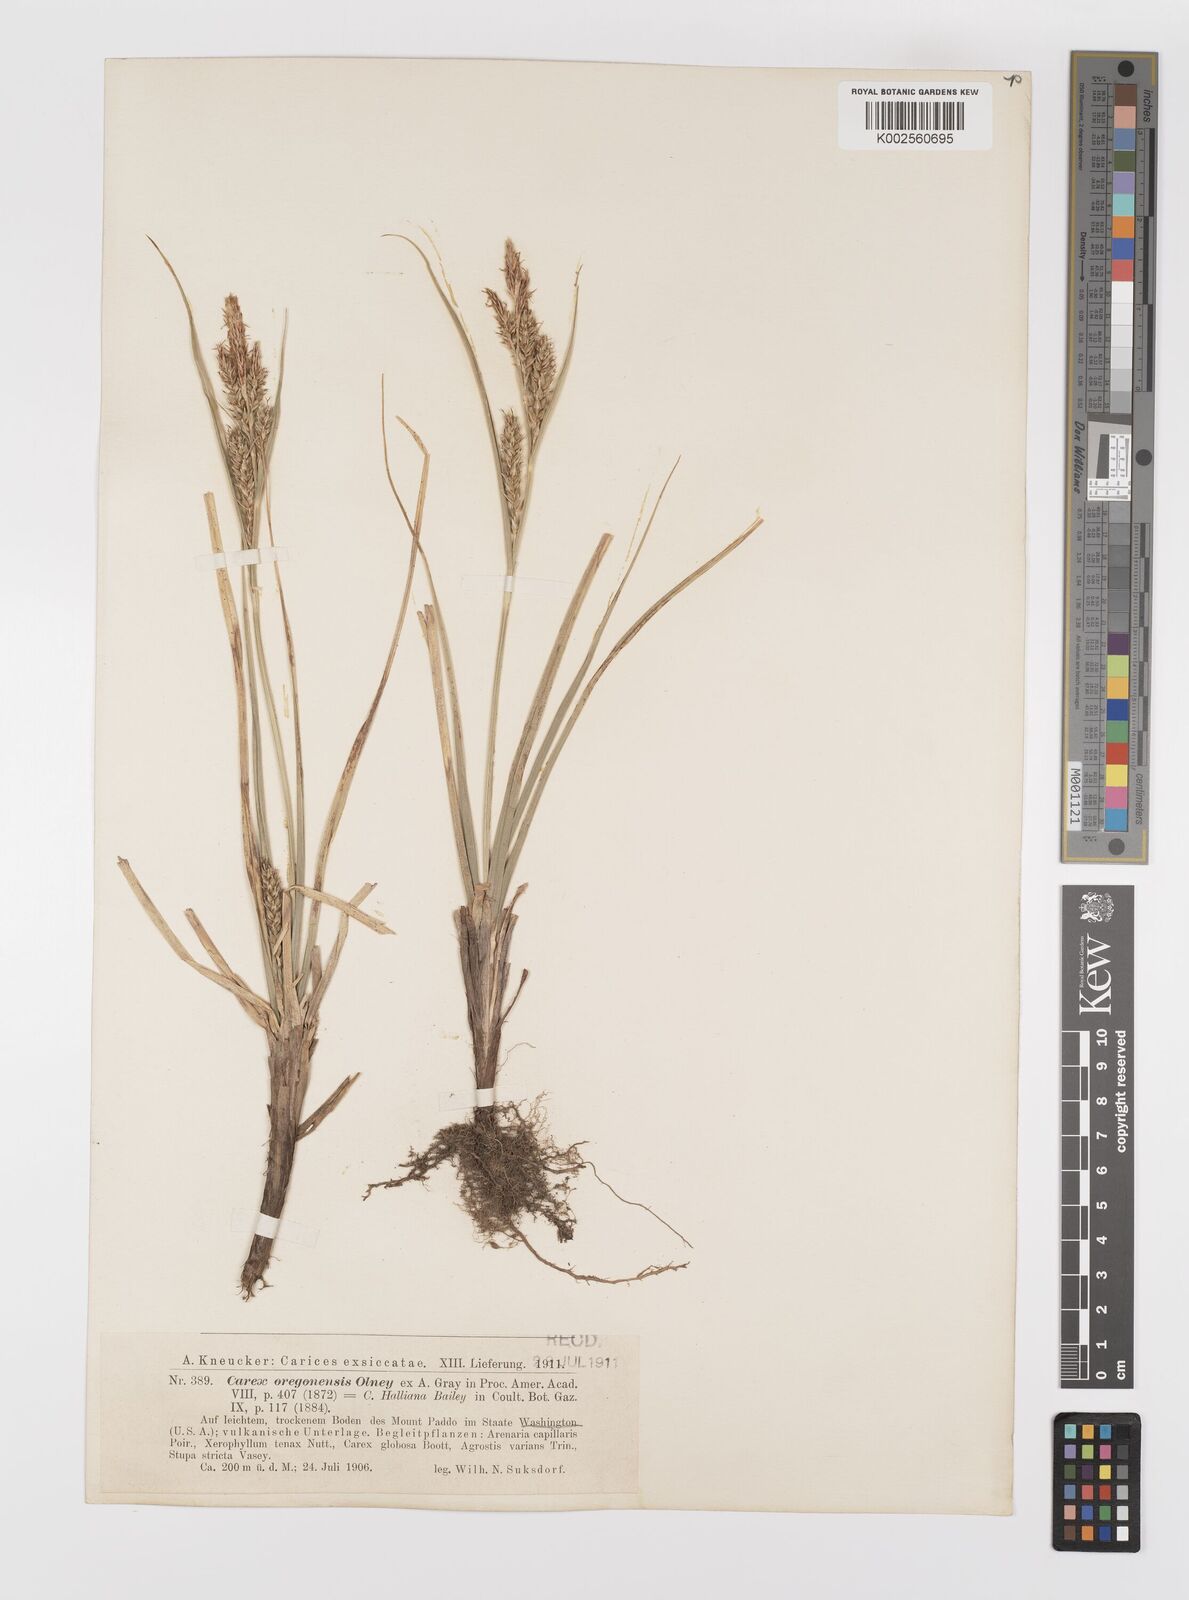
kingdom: Plantae
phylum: Tracheophyta
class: Liliopsida
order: Poales
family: Cyperaceae
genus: Carex
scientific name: Carex halliana
